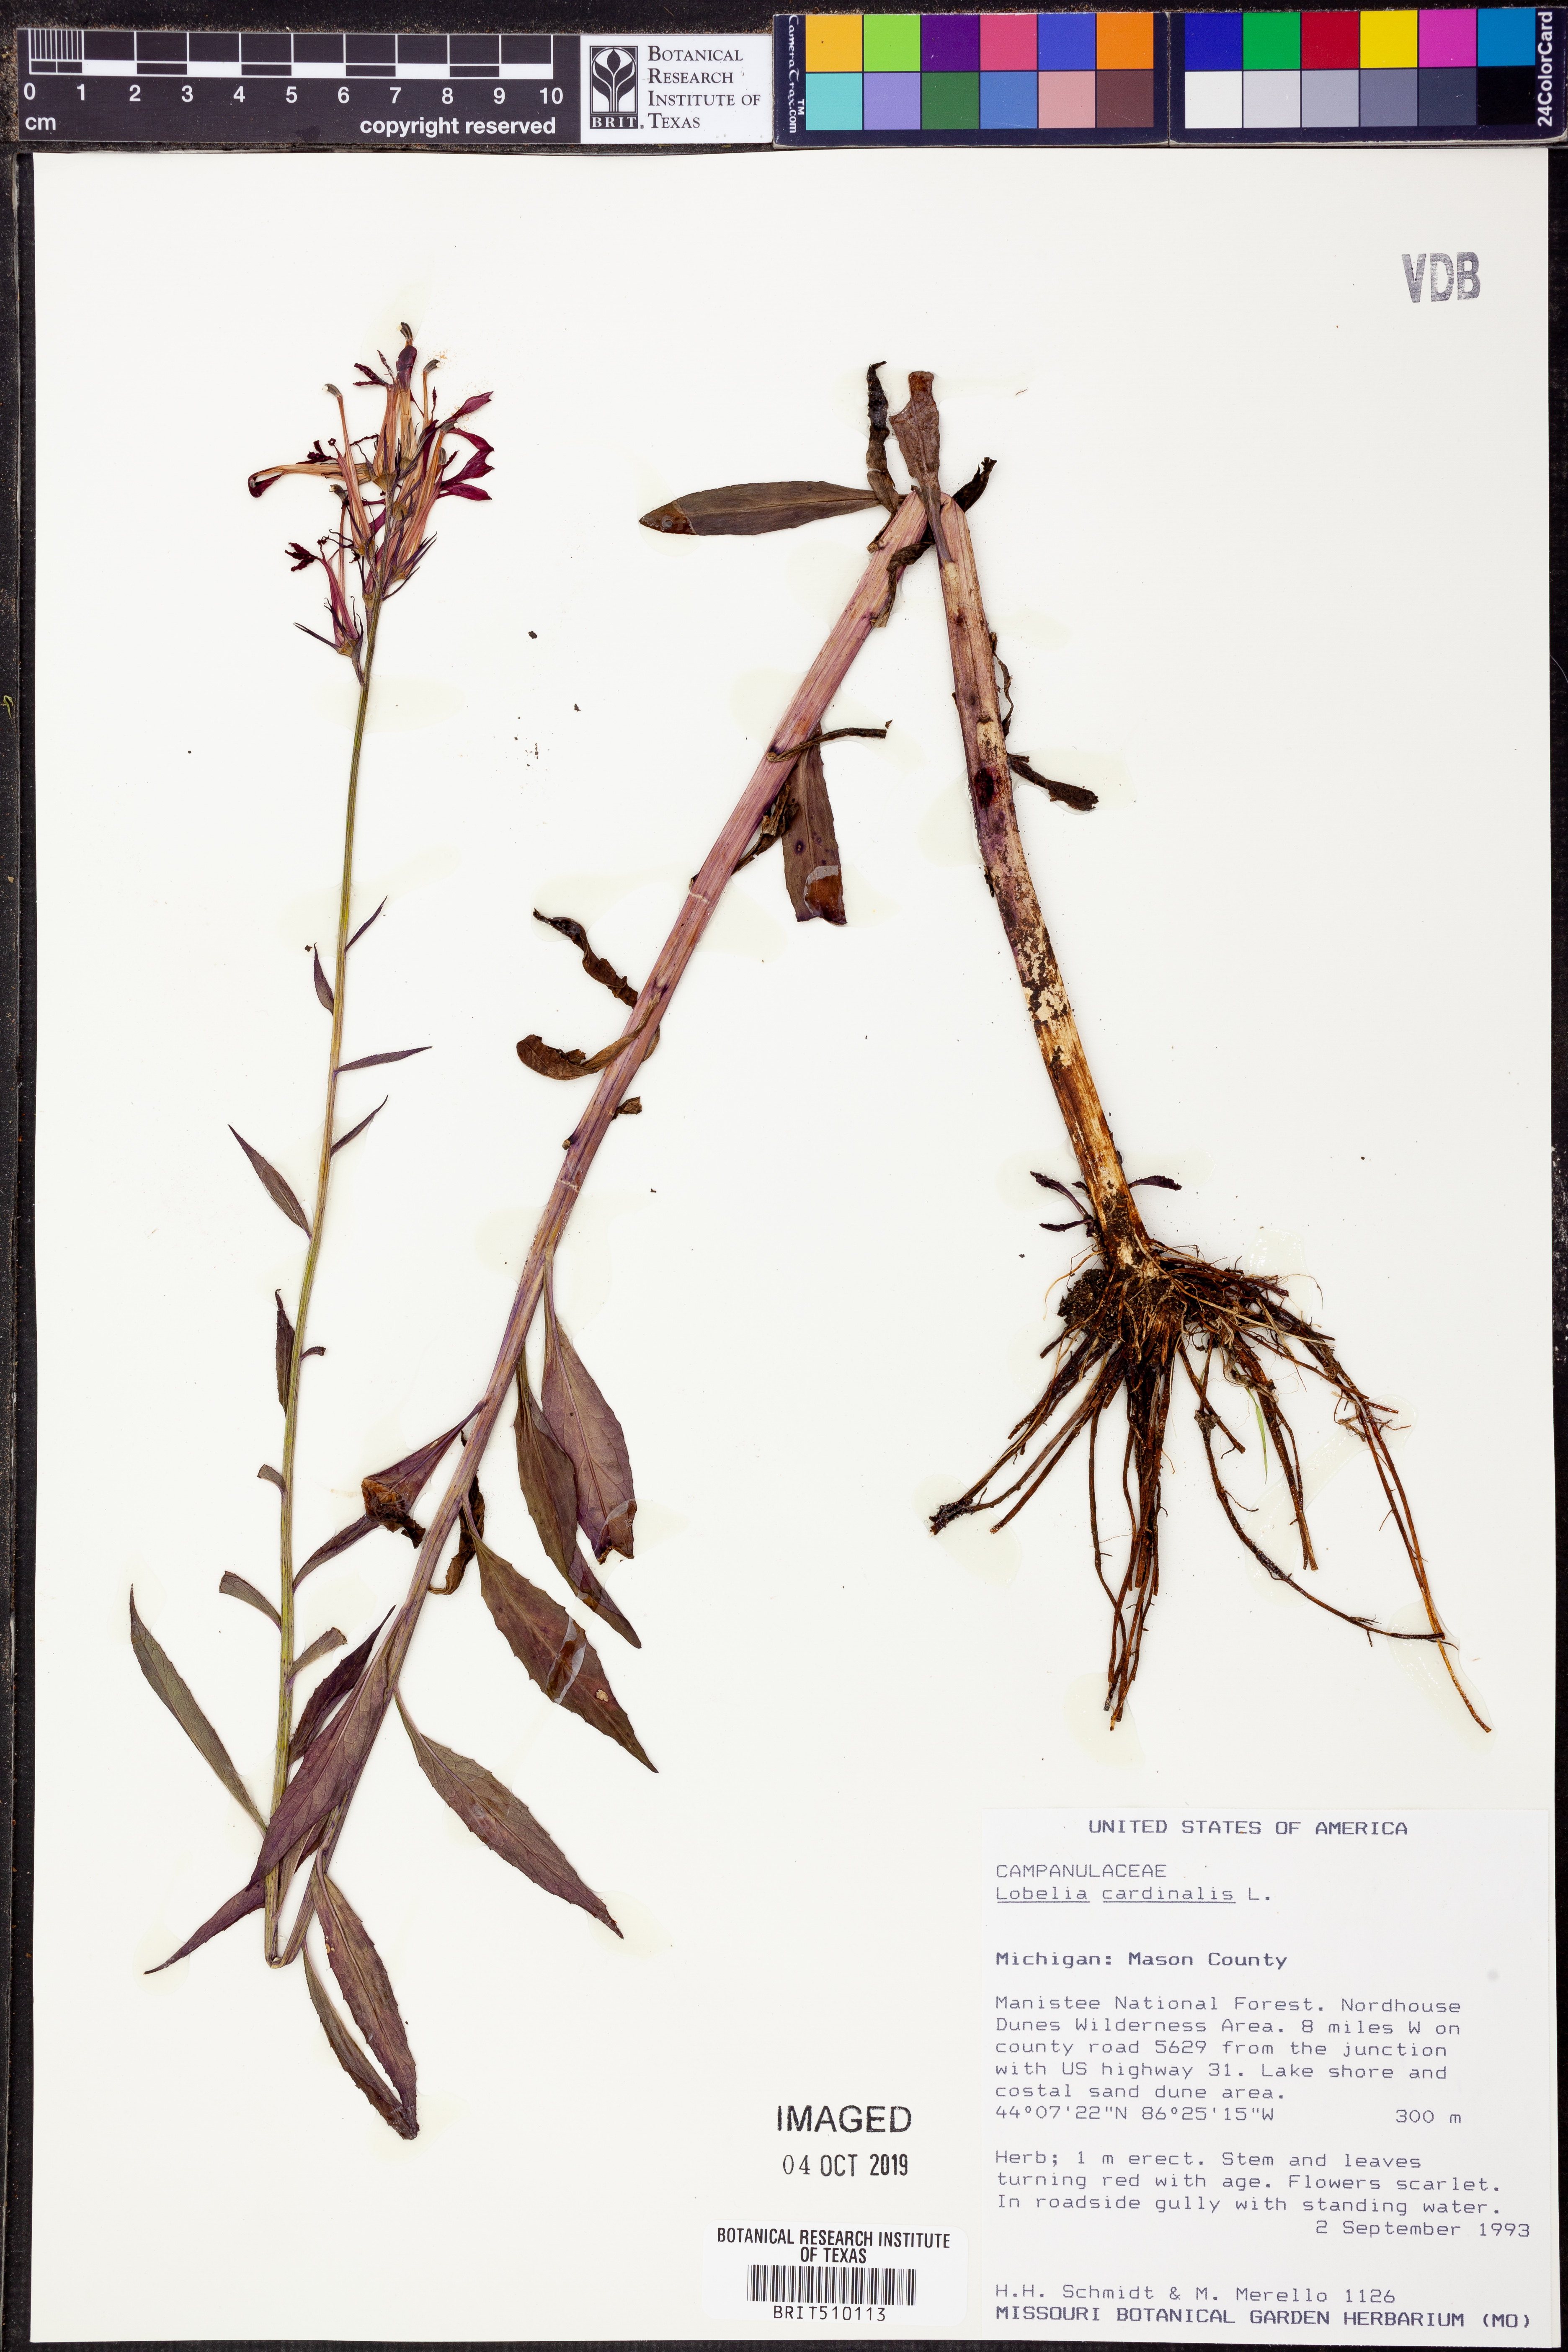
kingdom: Plantae
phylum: Tracheophyta
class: Magnoliopsida
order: Asterales
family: Campanulaceae
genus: Lobelia
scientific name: Lobelia cardinalis
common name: Cardinal flower
